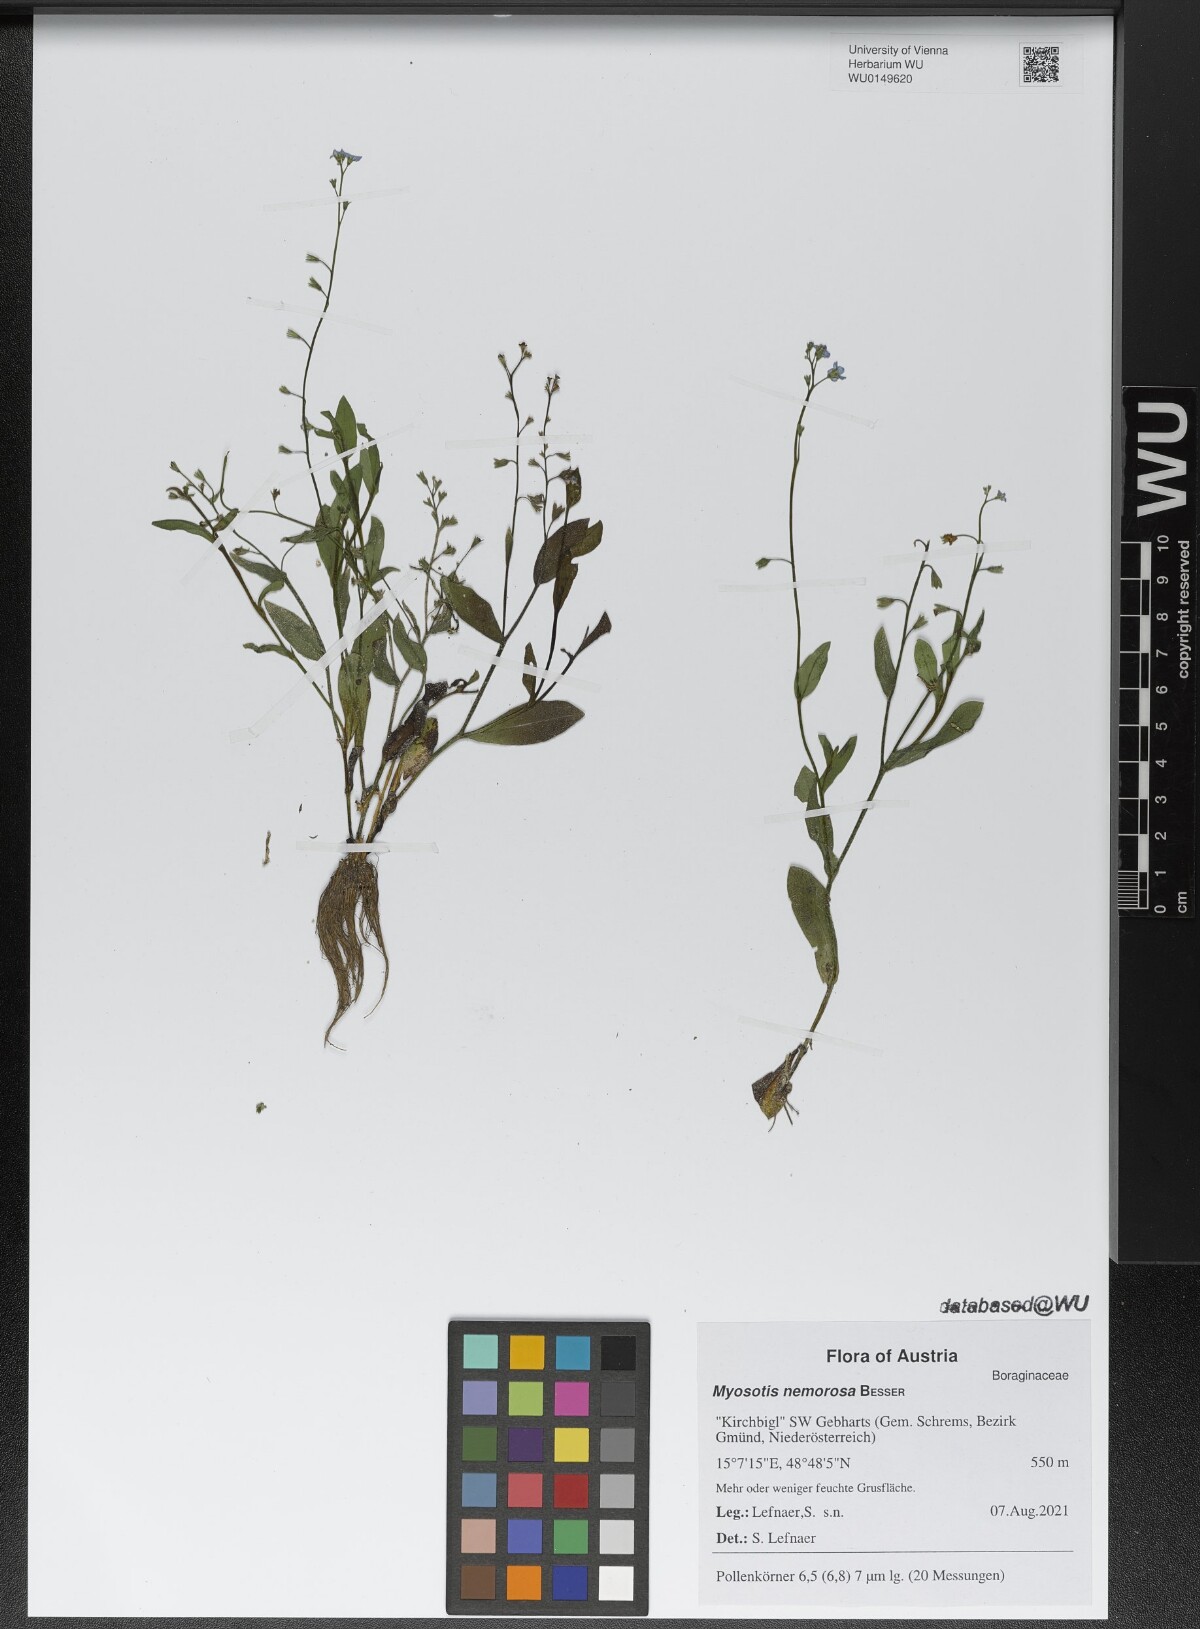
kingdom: Plantae
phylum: Tracheophyta
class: Magnoliopsida
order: Boraginales
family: Boraginaceae
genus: Myosotis
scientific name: Myosotis nemorosa
